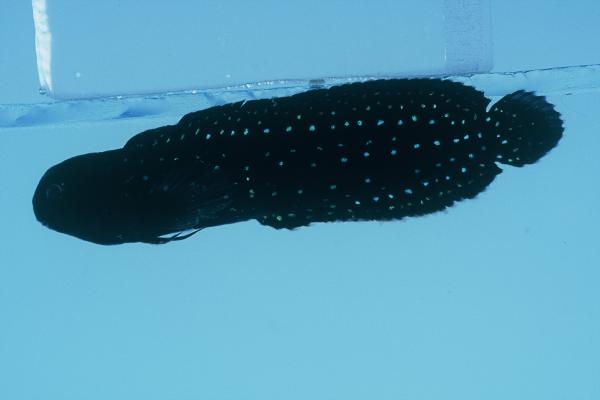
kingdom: Animalia
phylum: Chordata
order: Perciformes
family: Blenniidae
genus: Parenchelyurus
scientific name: Parenchelyurus hepburni
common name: Hepburn's blenny
